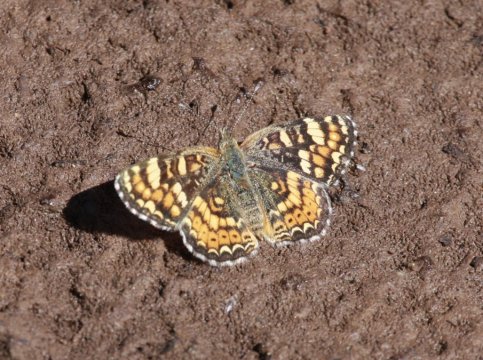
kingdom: Animalia
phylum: Arthropoda
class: Insecta
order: Lepidoptera
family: Nymphalidae
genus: Phyciodes
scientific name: Phyciodes tharos
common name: Field Crescent
